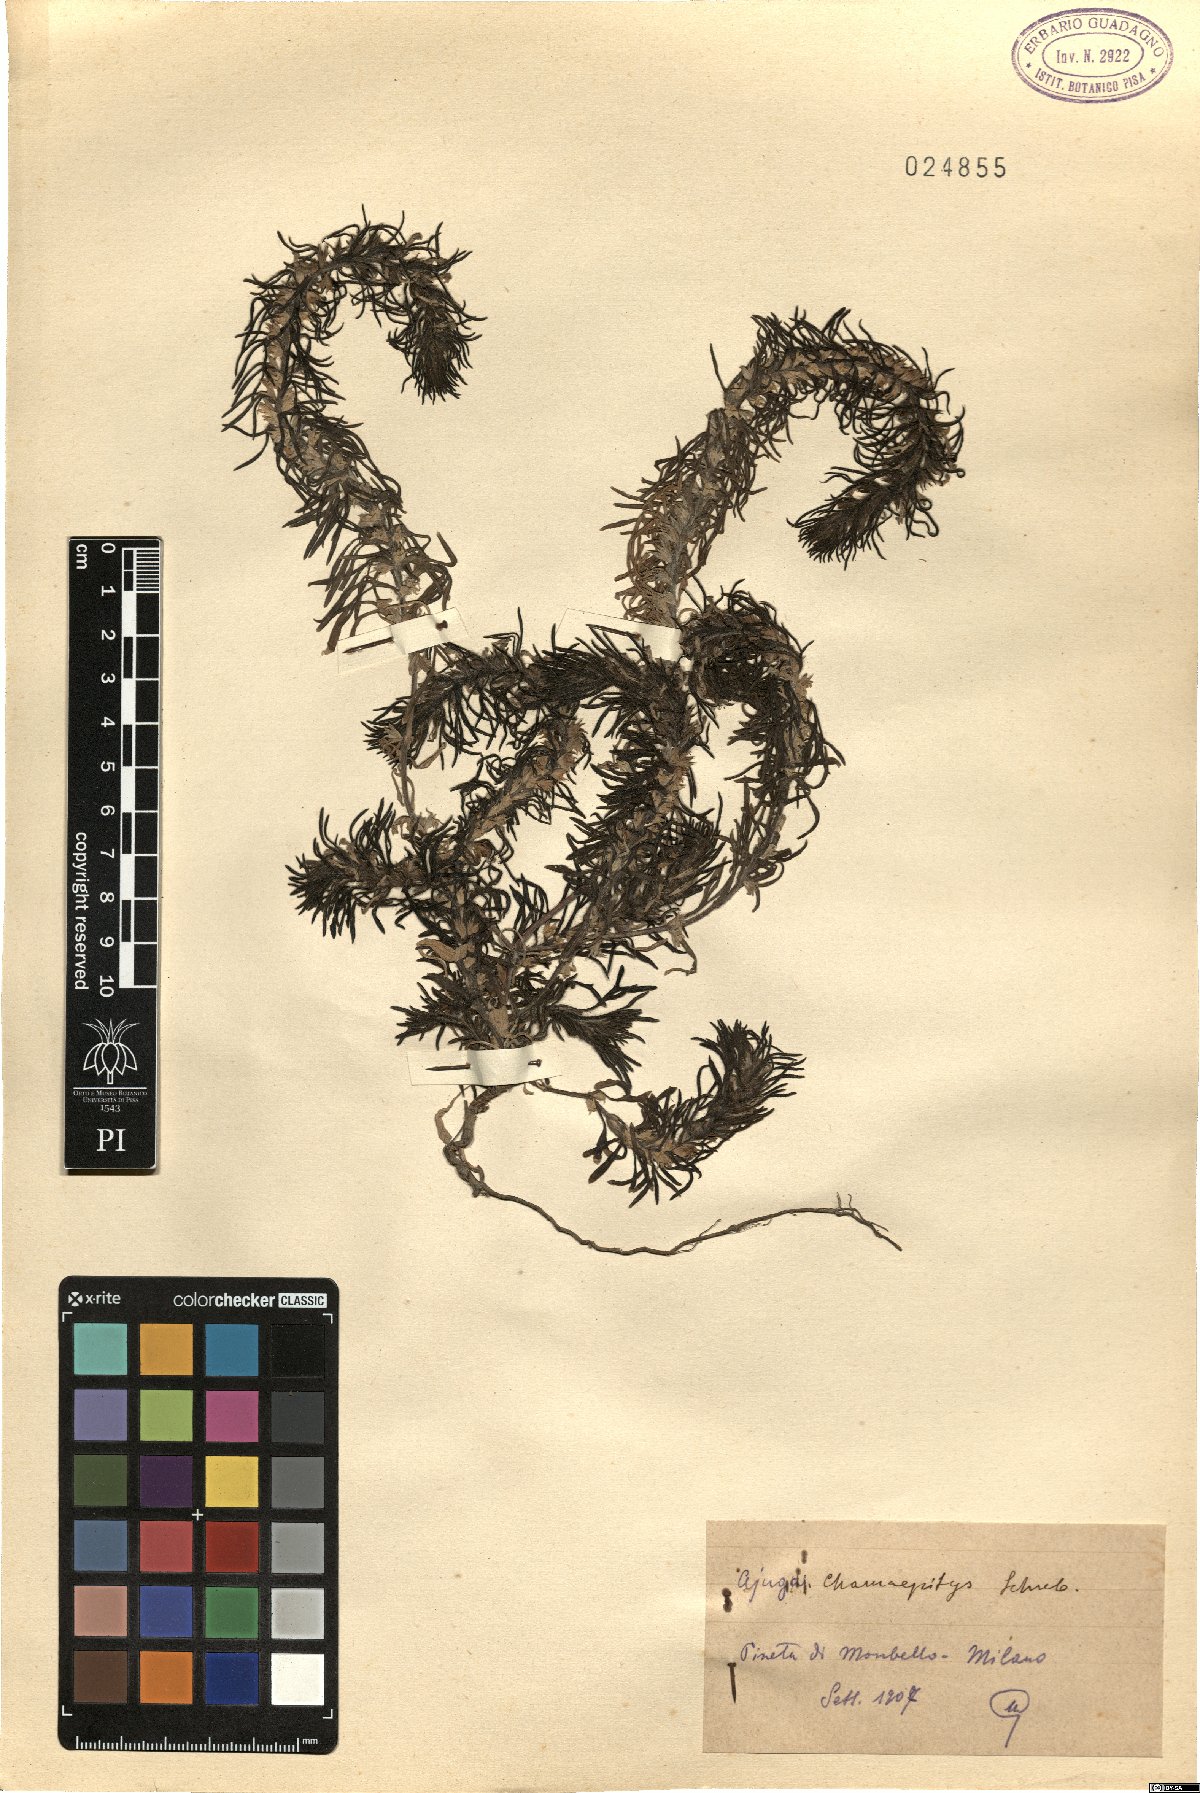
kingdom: Plantae
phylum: Tracheophyta
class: Magnoliopsida
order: Lamiales
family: Lamiaceae
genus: Ajuga
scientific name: Ajuga chamaepitys
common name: Ground-pine
